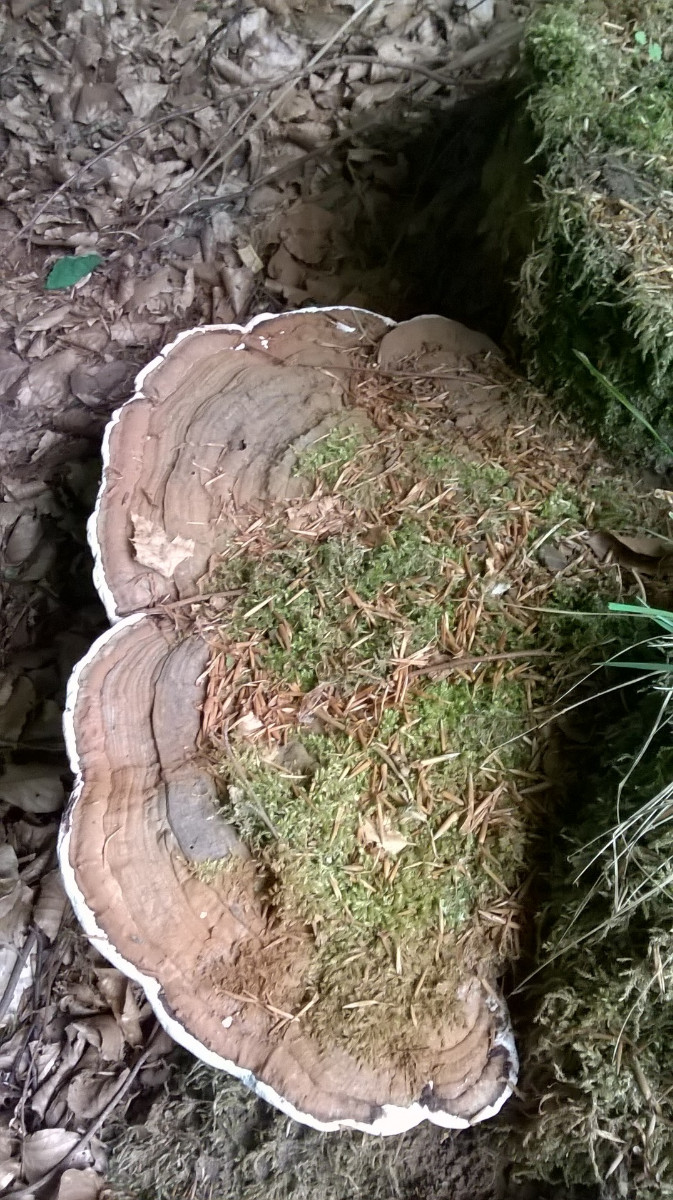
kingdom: Fungi
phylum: Basidiomycota
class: Agaricomycetes
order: Polyporales
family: Polyporaceae
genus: Ganoderma
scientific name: Ganoderma applanatum
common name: flad lakporesvamp
